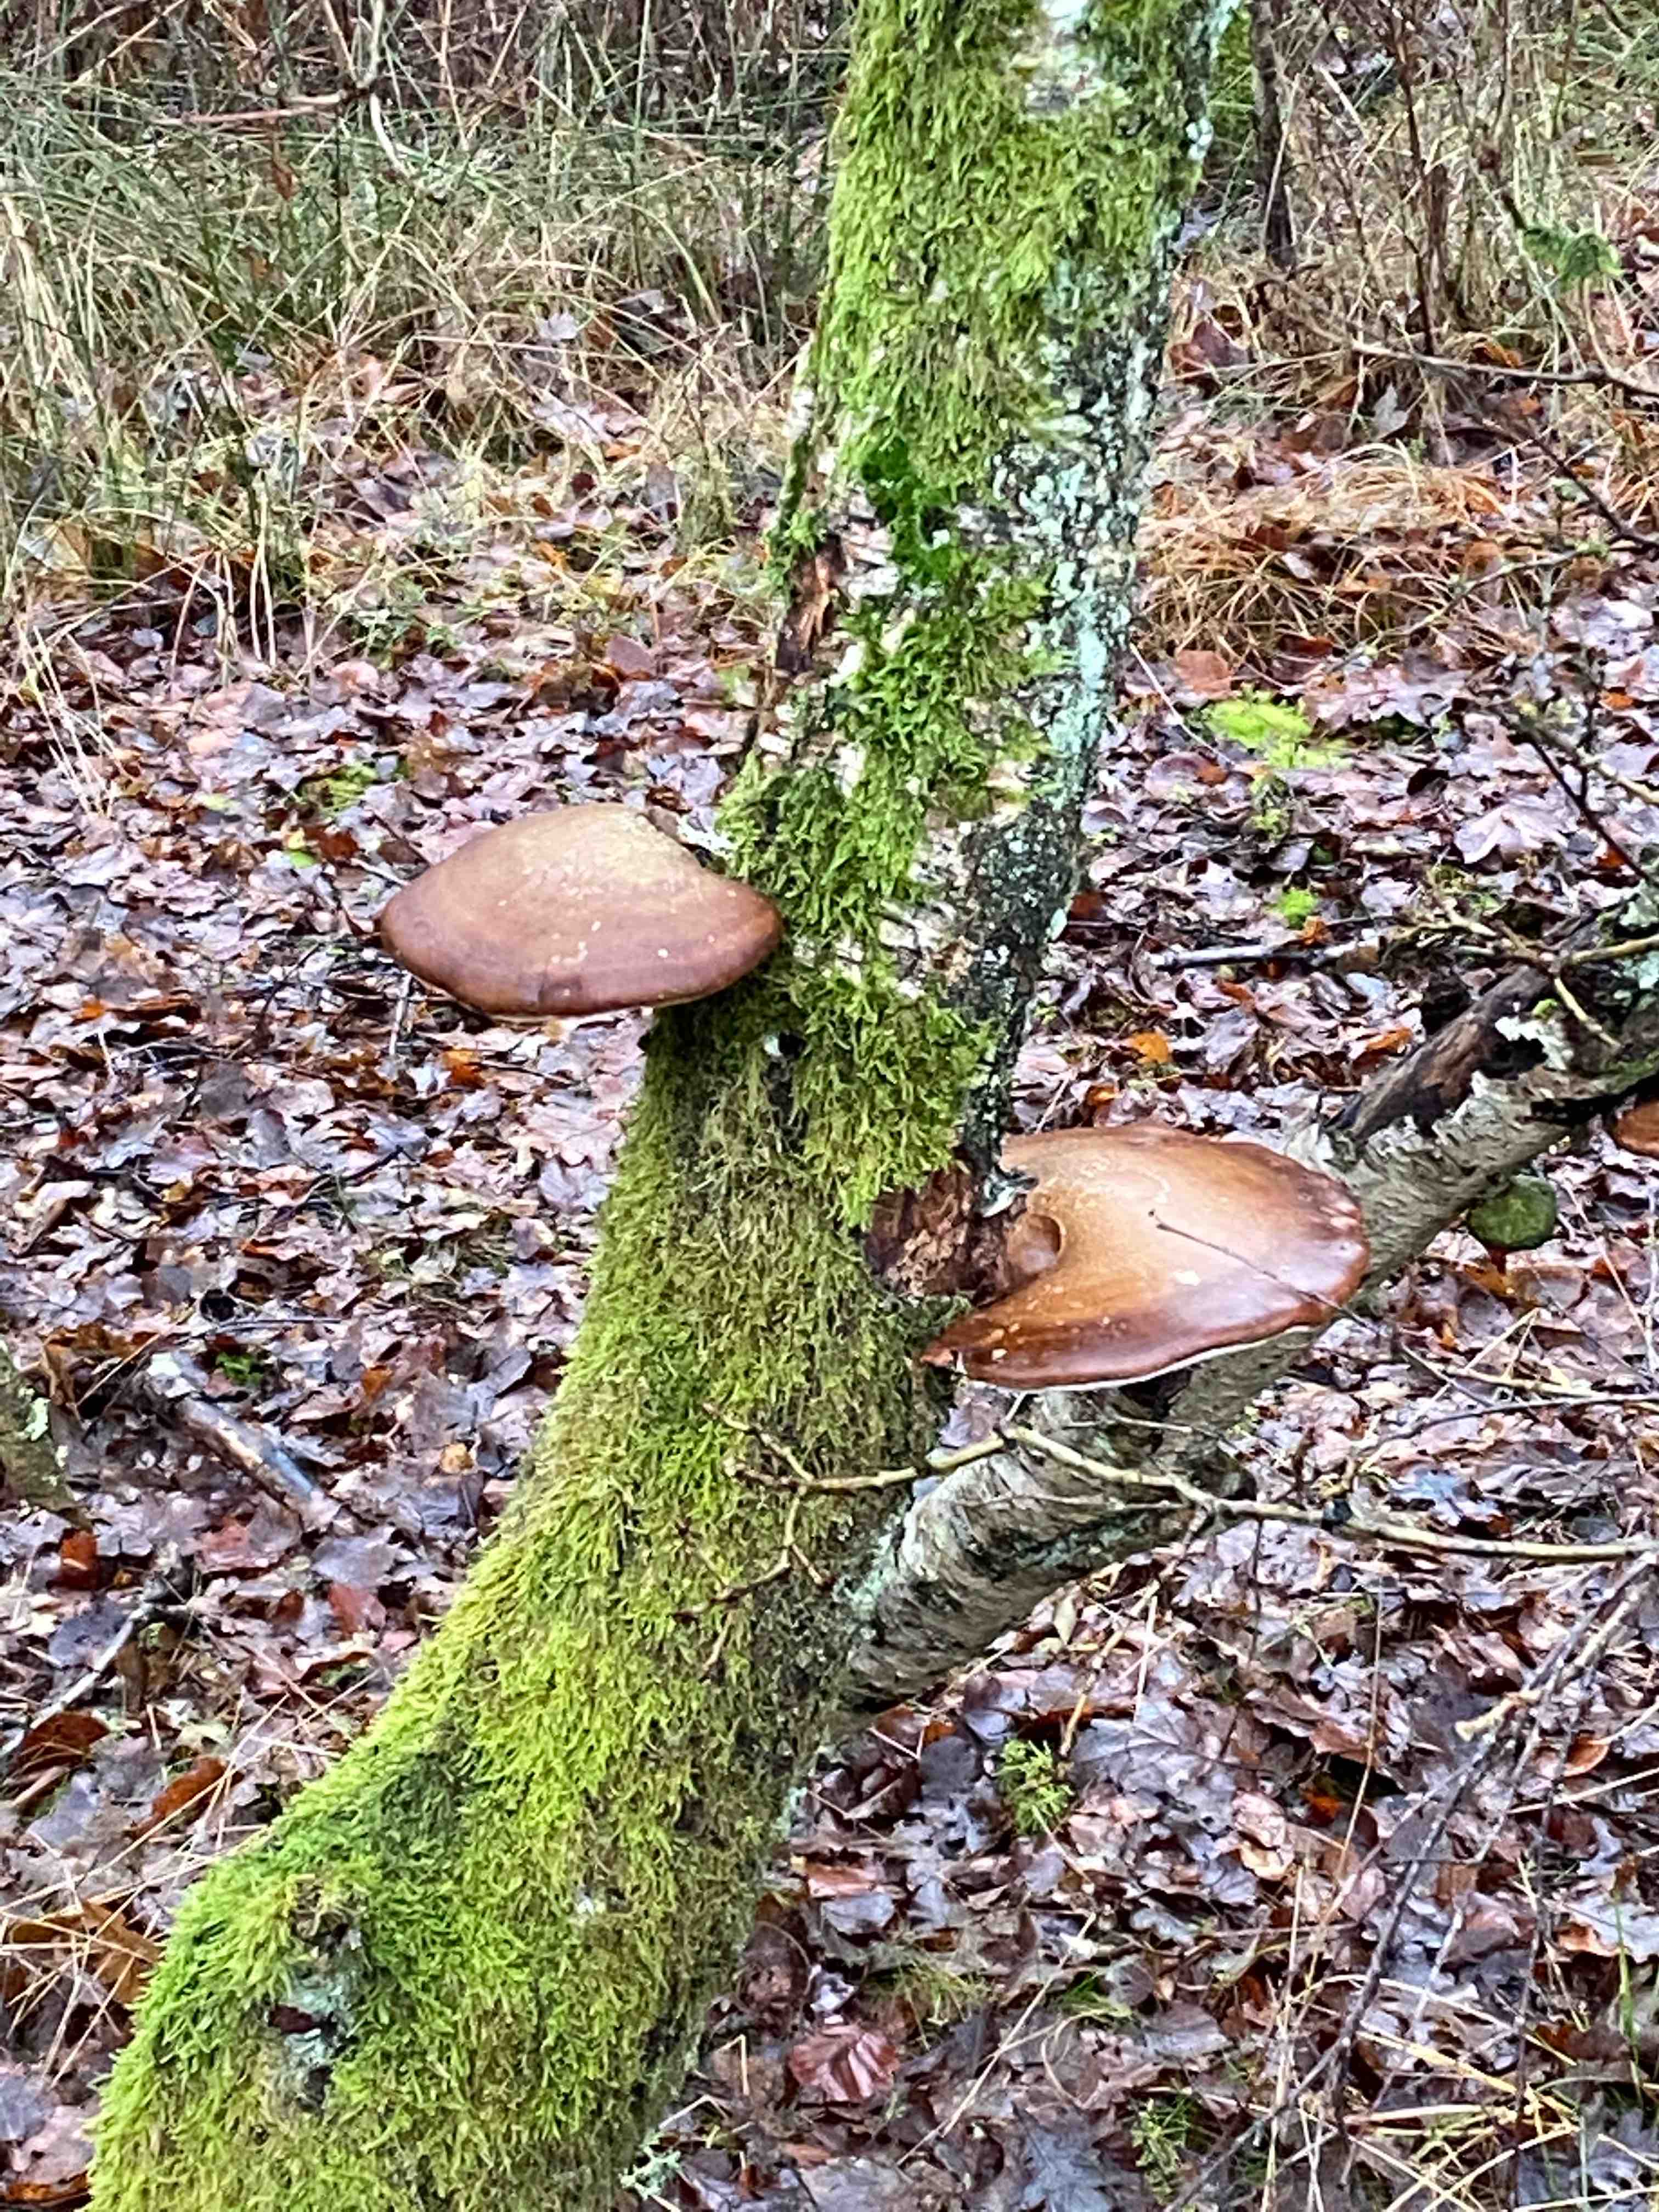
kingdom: Fungi
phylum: Basidiomycota
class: Agaricomycetes
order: Polyporales
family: Fomitopsidaceae
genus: Fomitopsis
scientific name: Fomitopsis betulina
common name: birkeporesvamp
